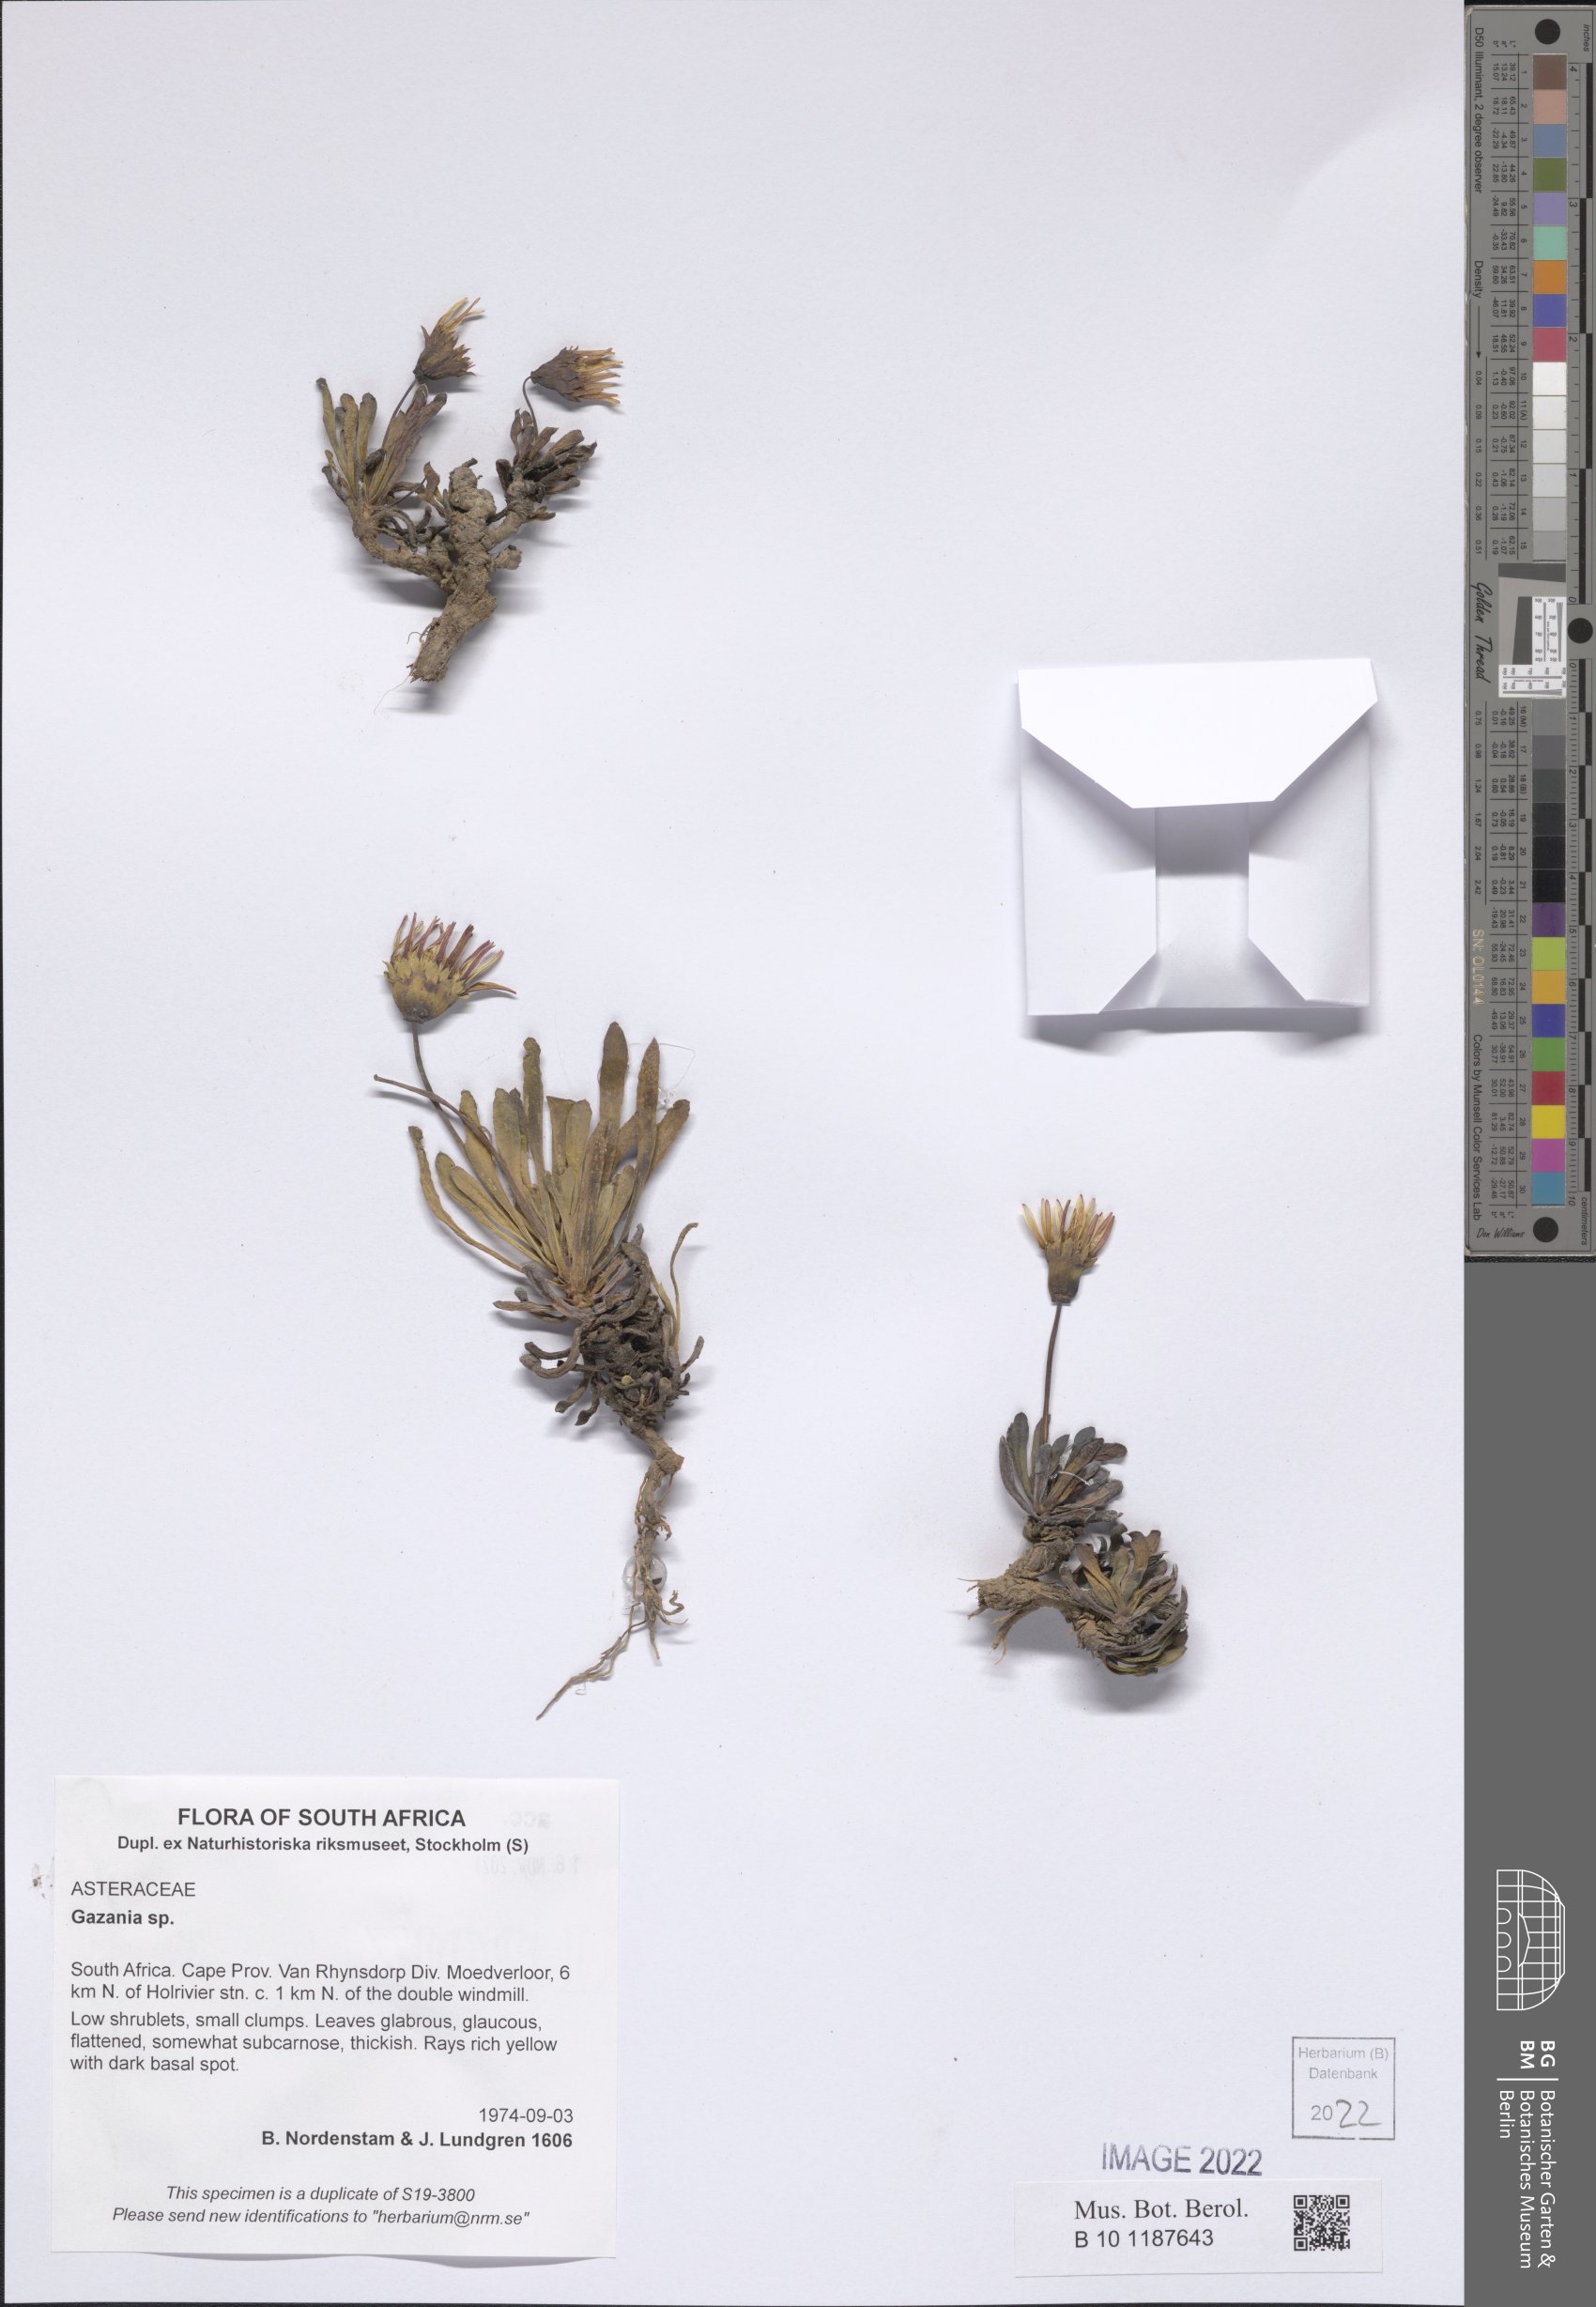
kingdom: Plantae
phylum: Tracheophyta
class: Magnoliopsida
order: Asterales
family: Asteraceae
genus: Gazania
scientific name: Gazania
